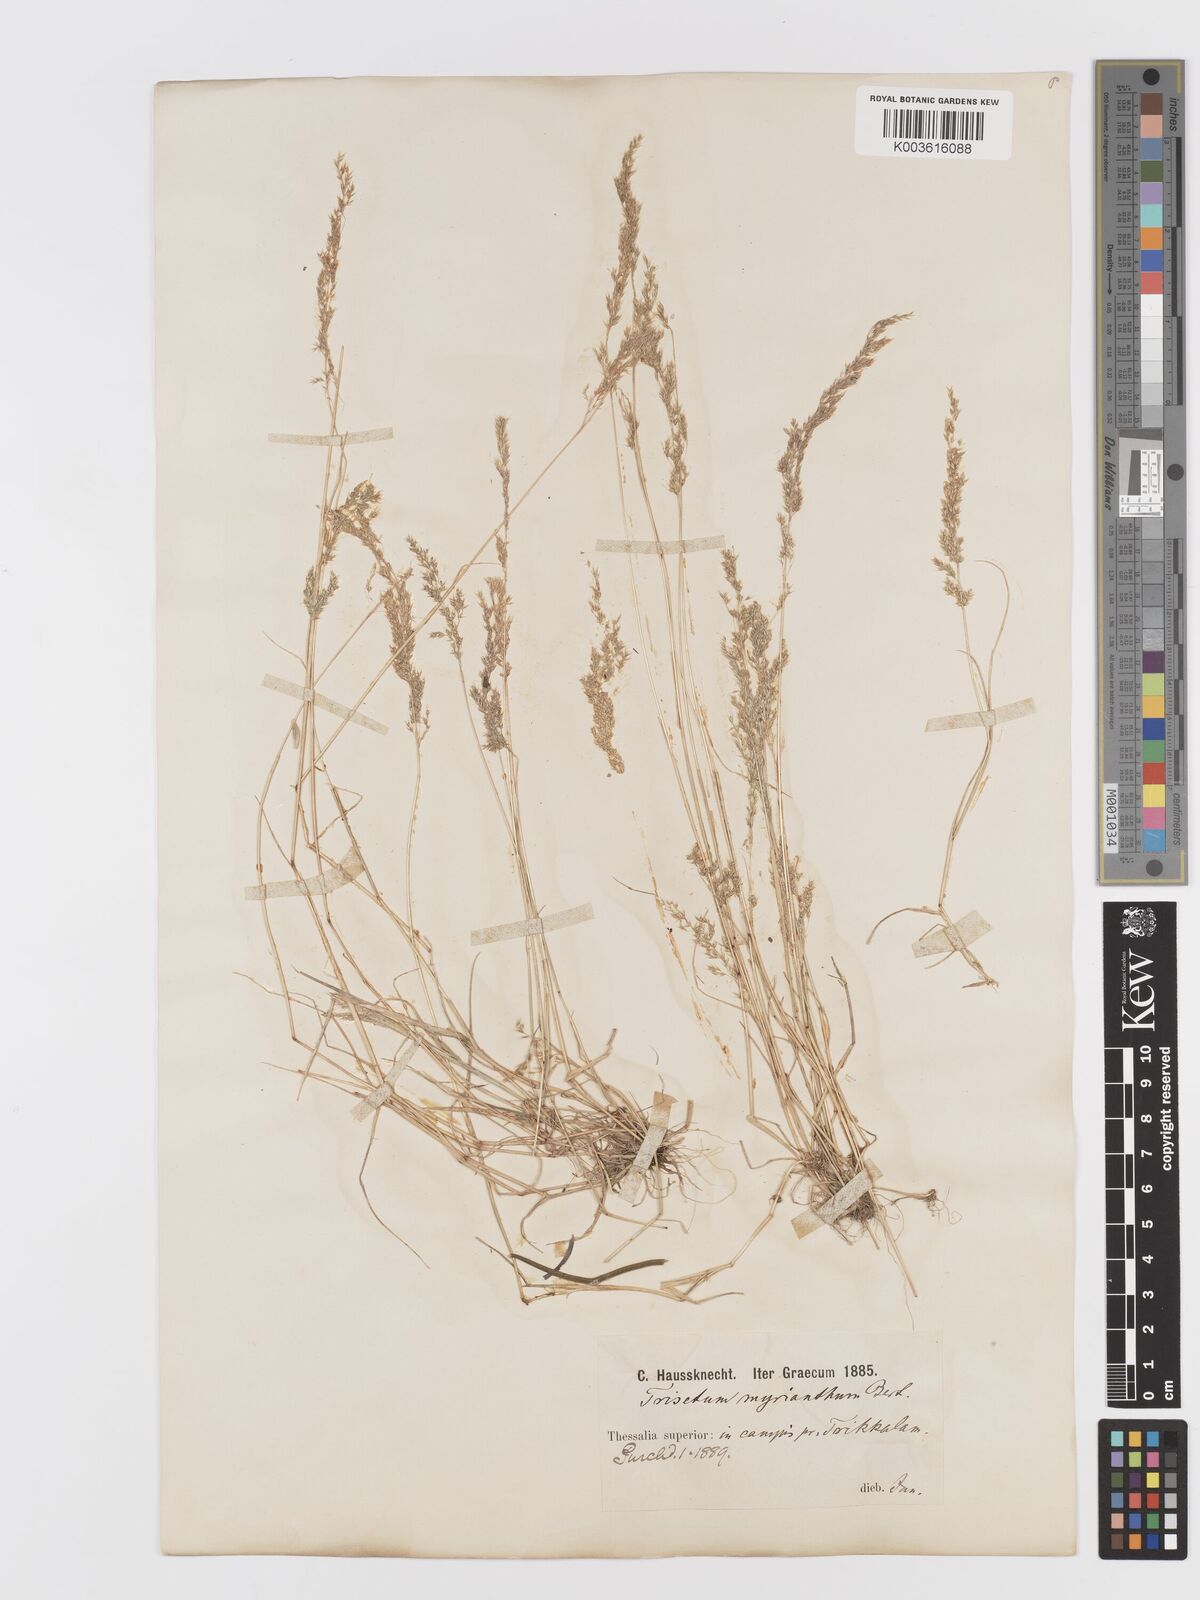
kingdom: Plantae
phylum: Tracheophyta
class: Liliopsida
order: Poales
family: Poaceae
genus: Parvotrisetum
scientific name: Parvotrisetum myrianthum
